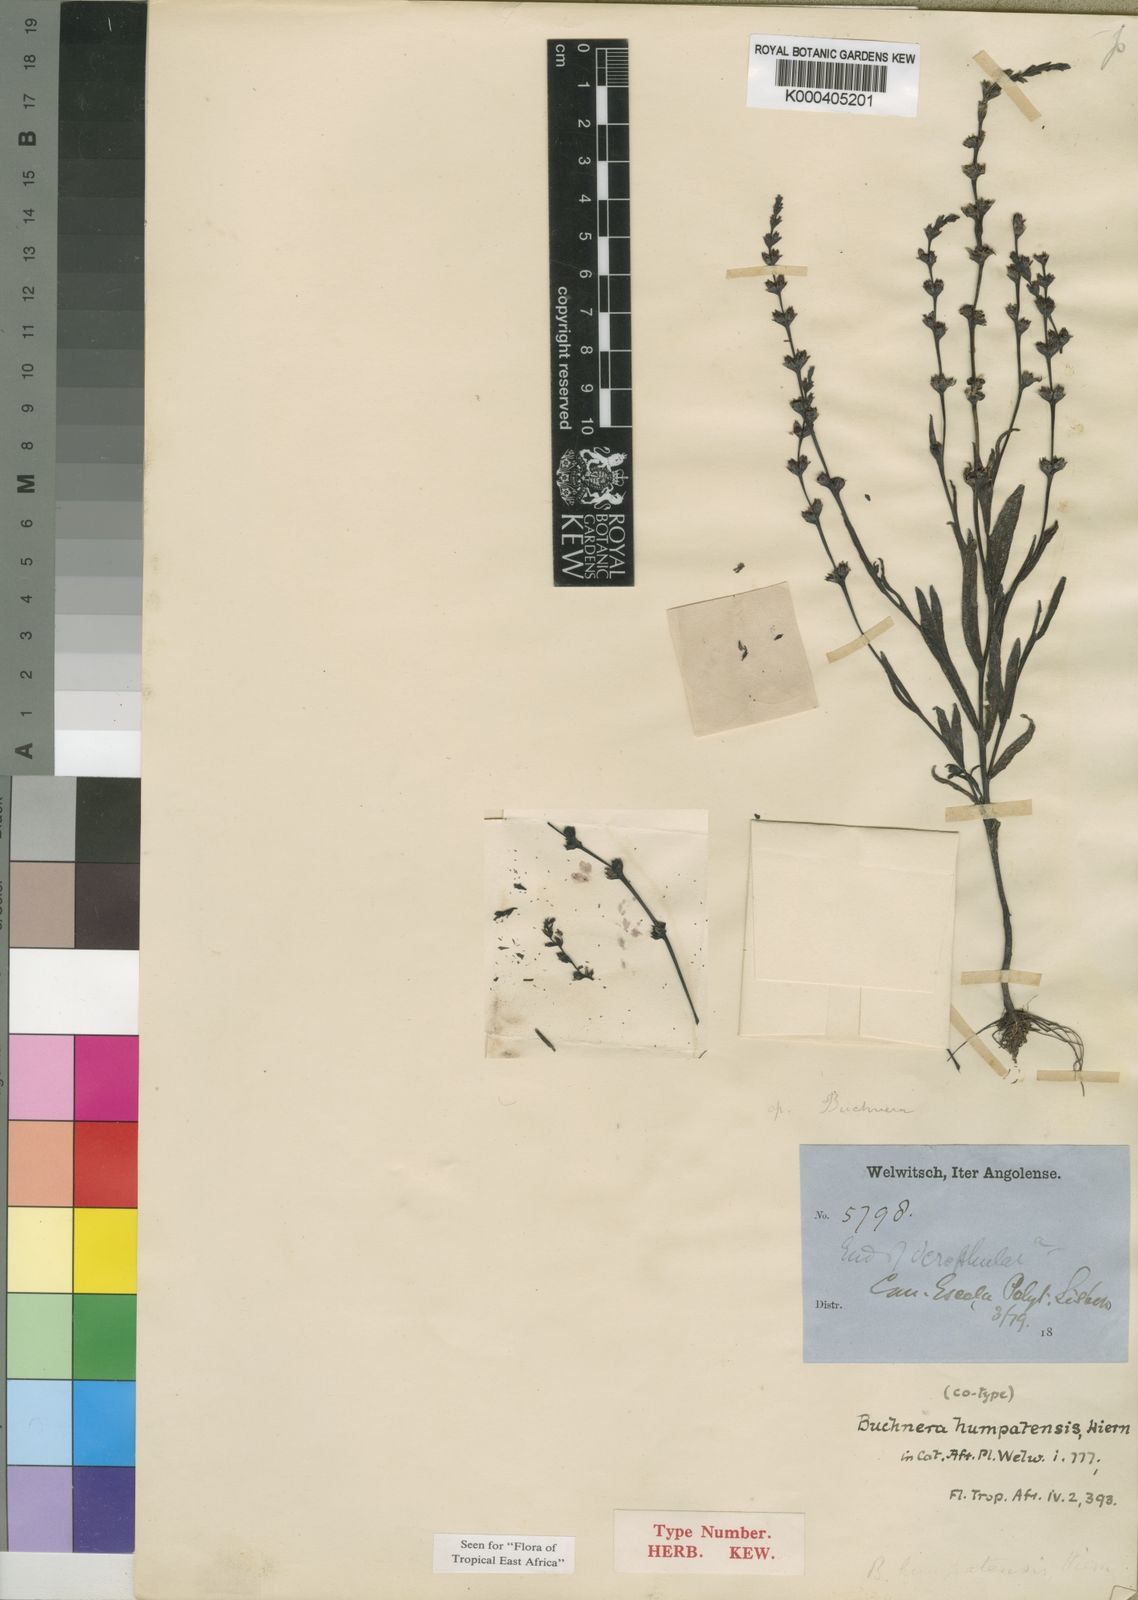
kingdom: Plantae
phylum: Tracheophyta
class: Magnoliopsida
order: Lamiales
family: Orobanchaceae
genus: Buchnera
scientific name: Buchnera humpatensis
